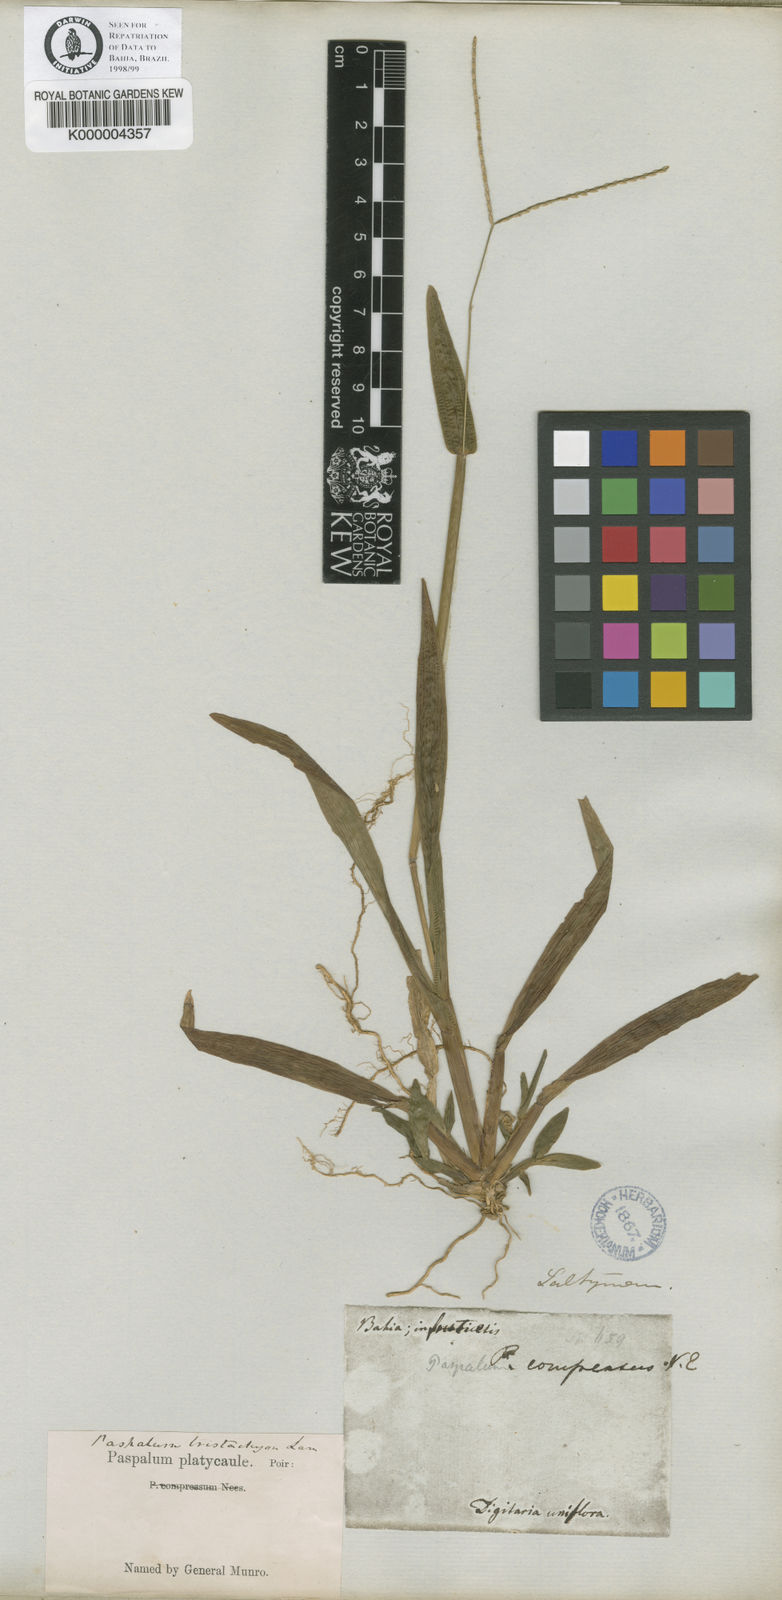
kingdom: Plantae
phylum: Tracheophyta
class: Liliopsida
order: Poales
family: Poaceae
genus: Axonopus
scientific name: Axonopus compressus
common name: American carpet grass
